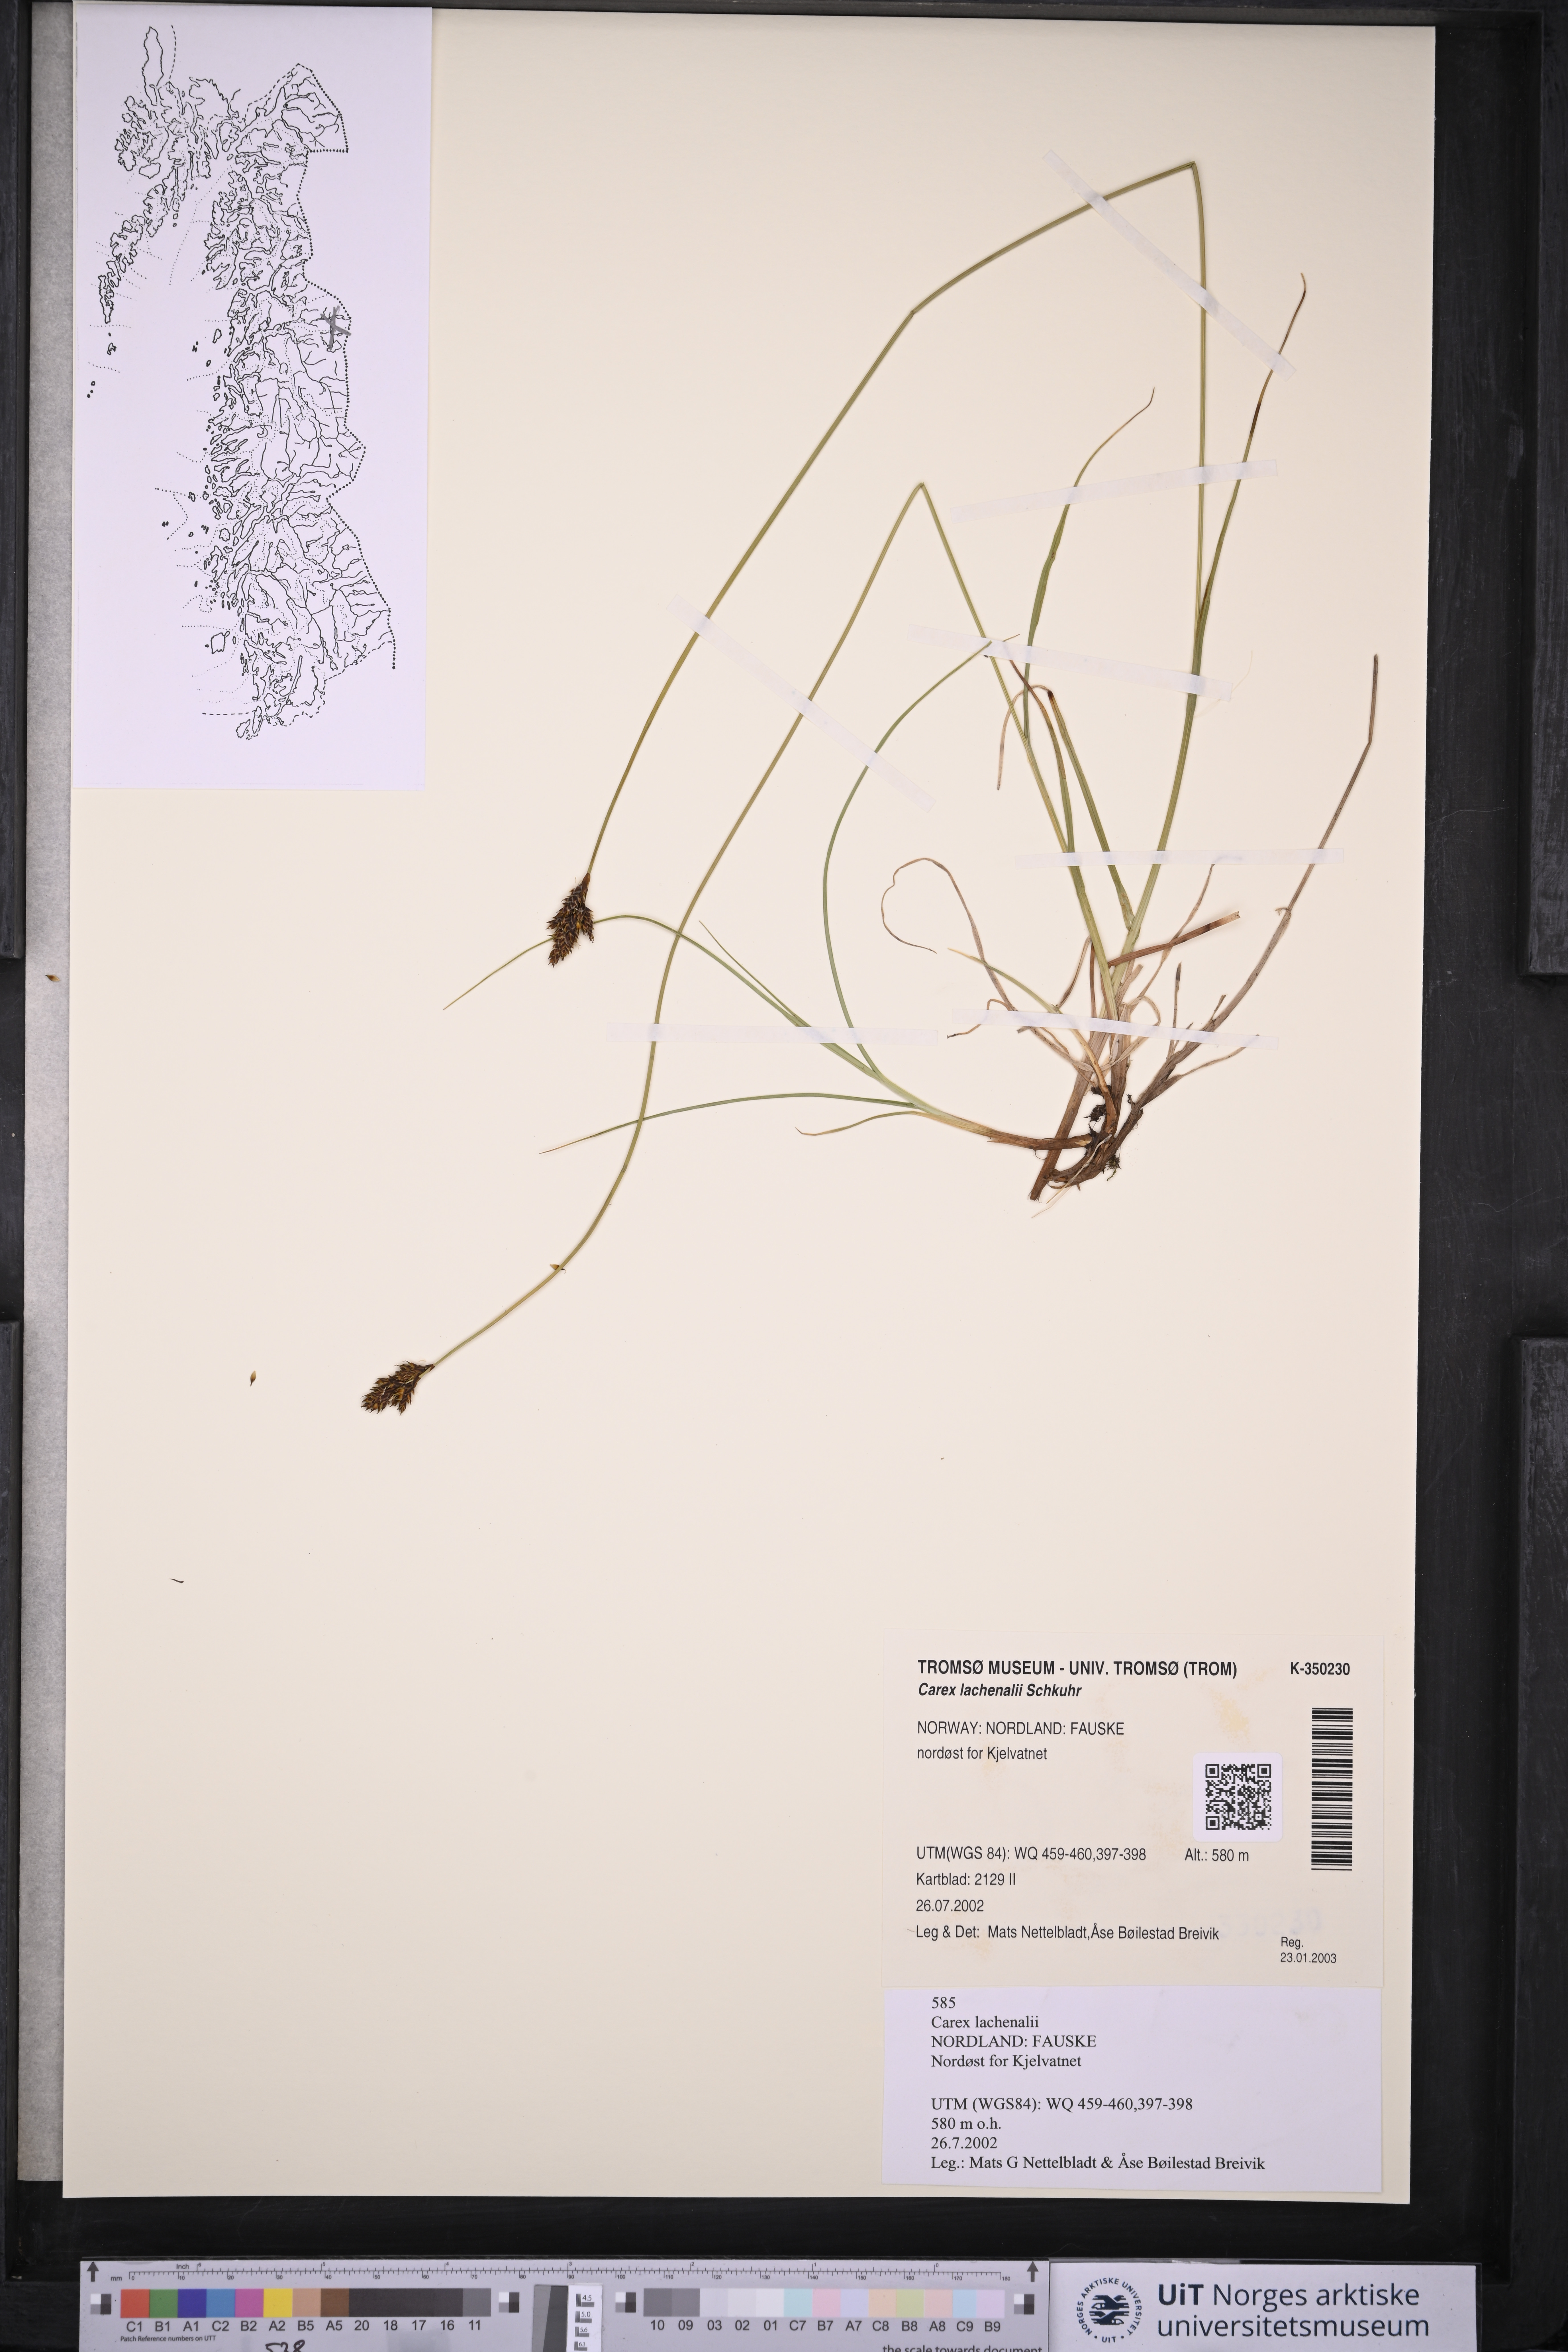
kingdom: Plantae
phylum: Tracheophyta
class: Liliopsida
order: Poales
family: Cyperaceae
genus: Carex
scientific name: Carex lachenalii
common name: Hare's-foot sedge
